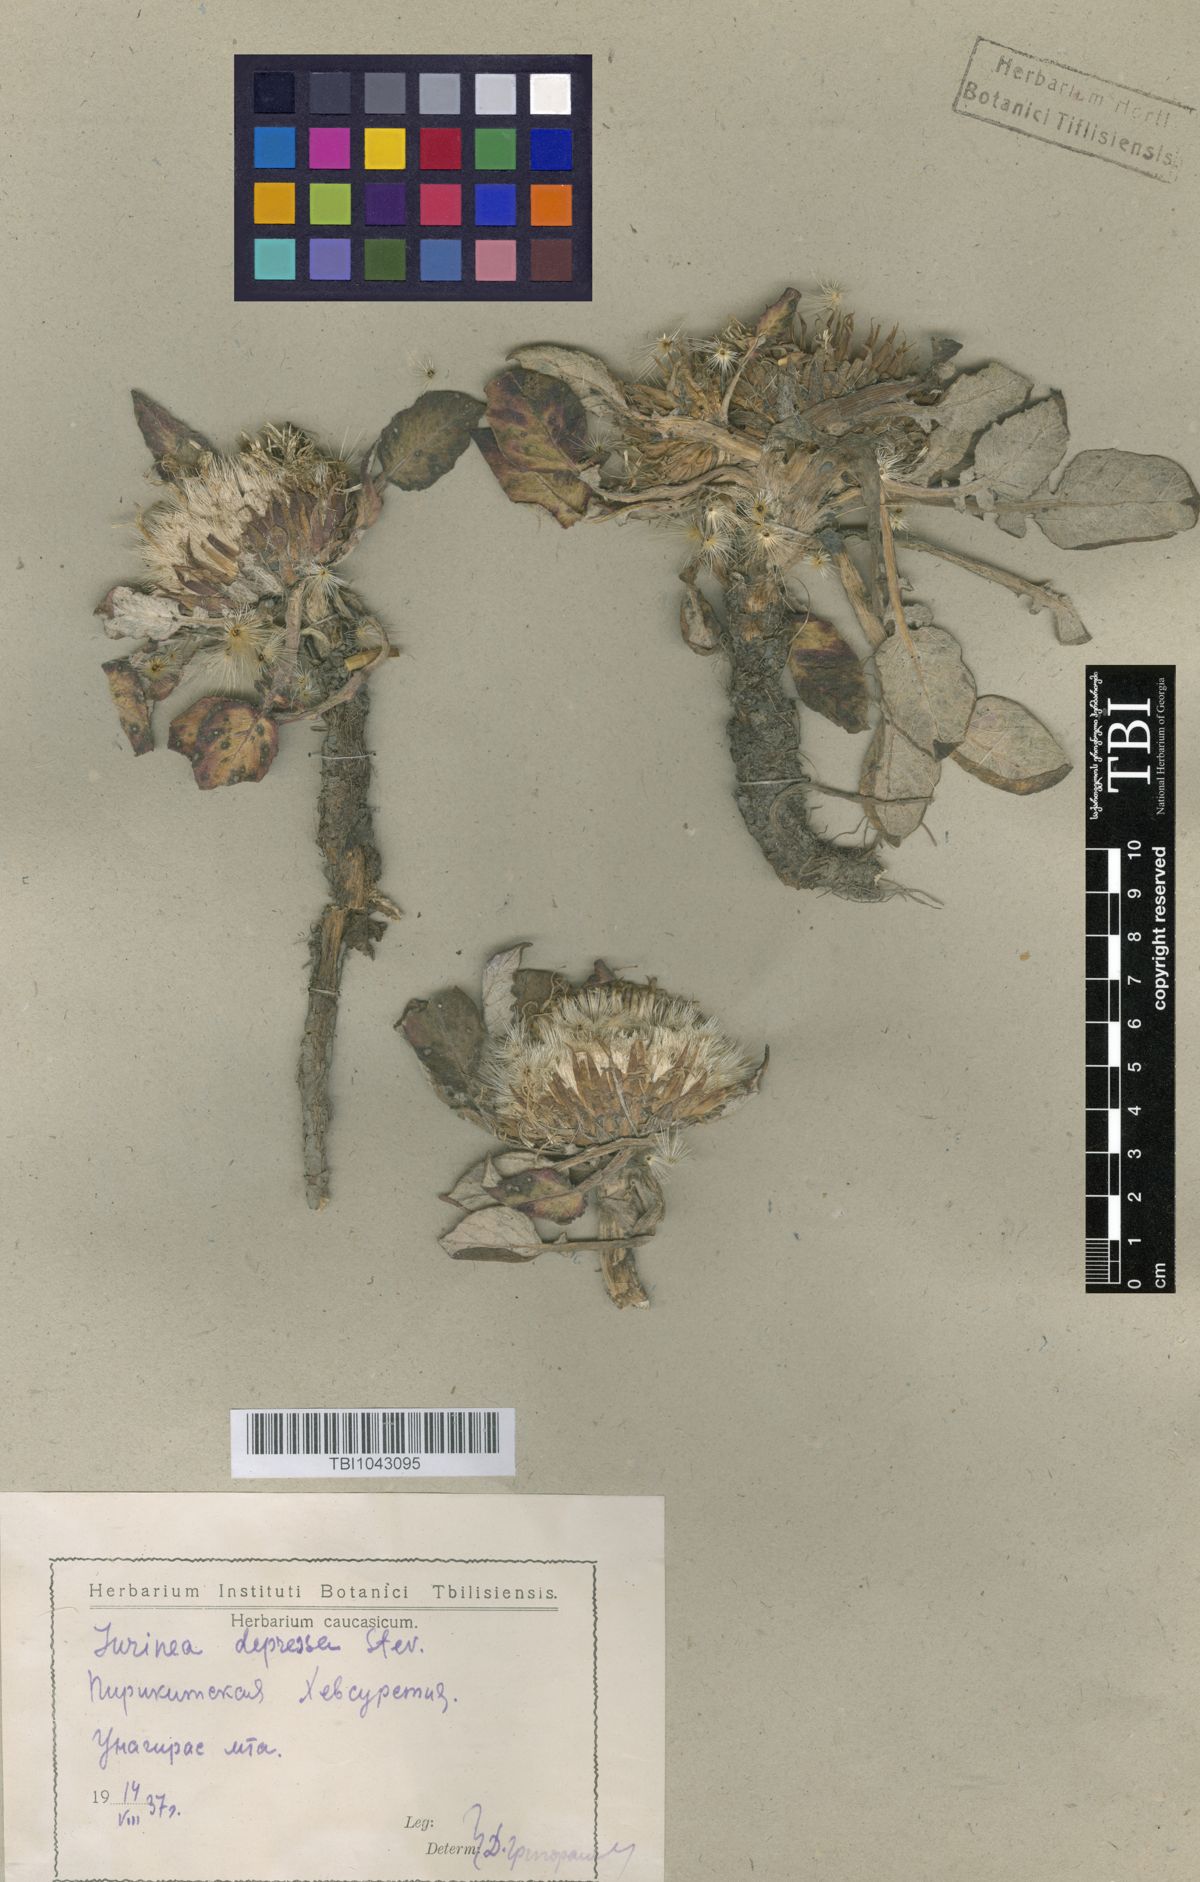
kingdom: Plantae
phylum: Tracheophyta
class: Magnoliopsida
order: Asterales
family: Asteraceae
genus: Jurinea
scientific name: Jurinea moschus
